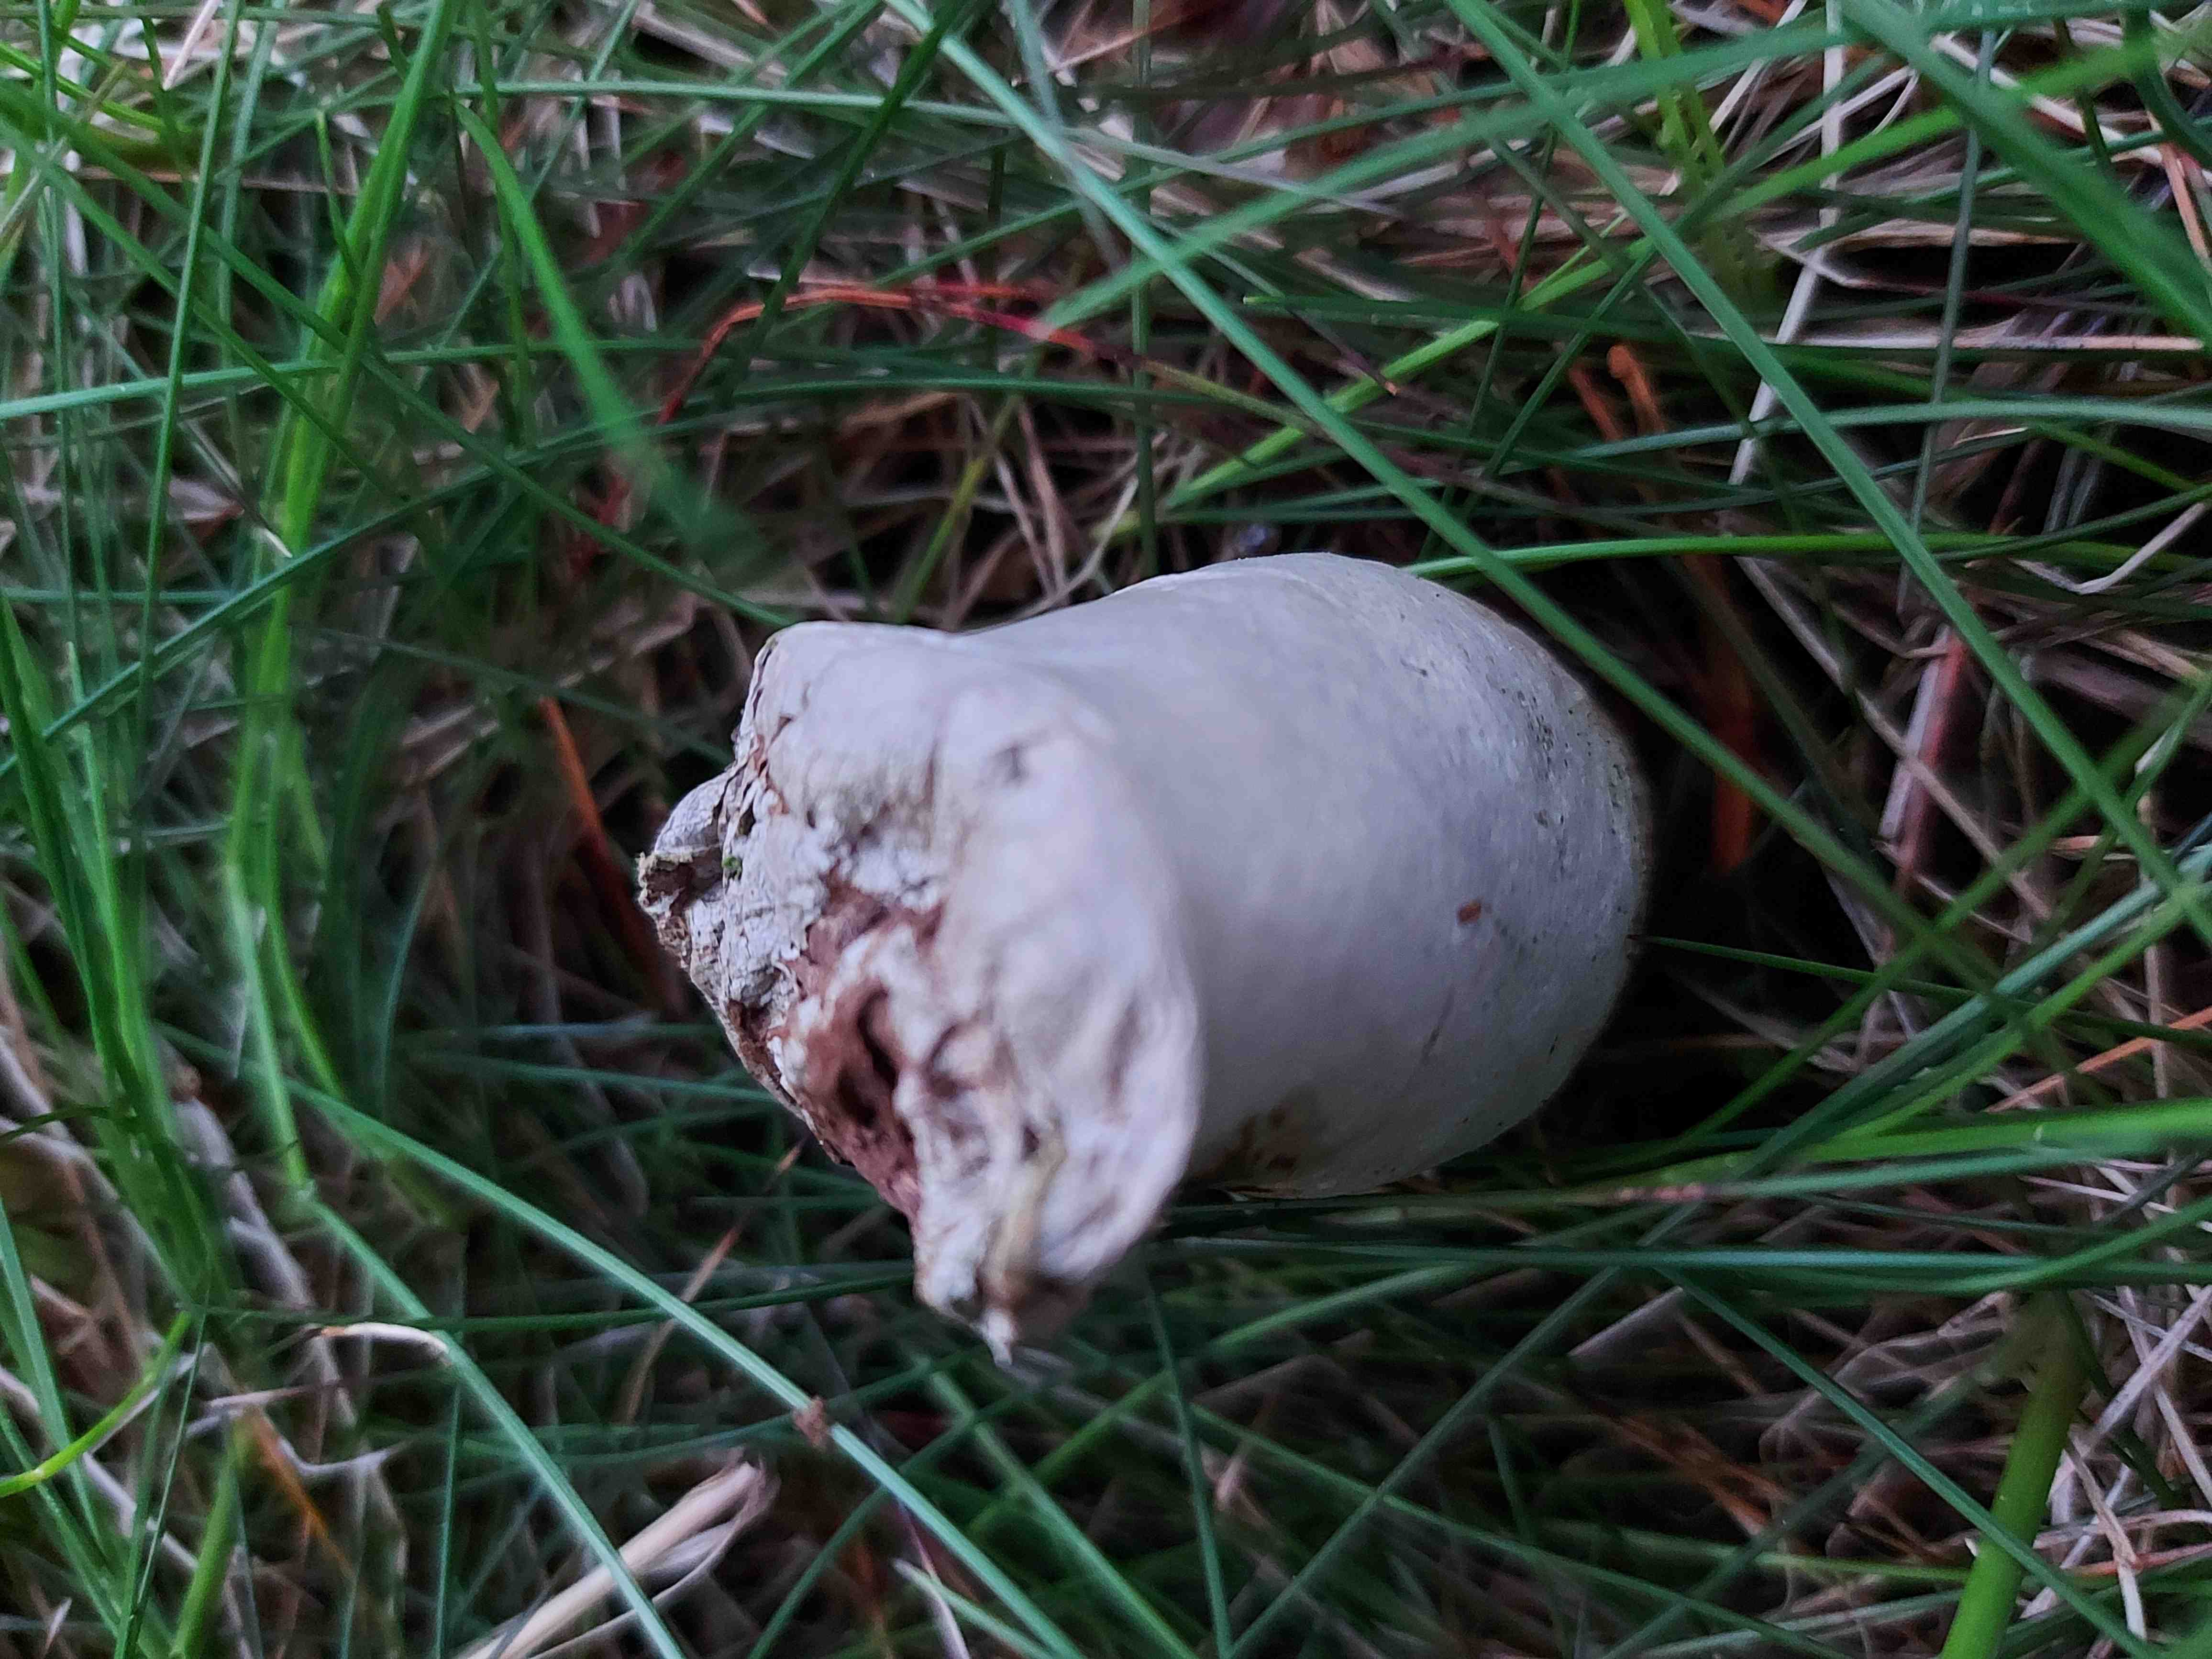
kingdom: Fungi
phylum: Basidiomycota
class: Agaricomycetes
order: Agaricales
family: Agaricaceae
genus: Lycoperdon
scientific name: Lycoperdon
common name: støvbold
